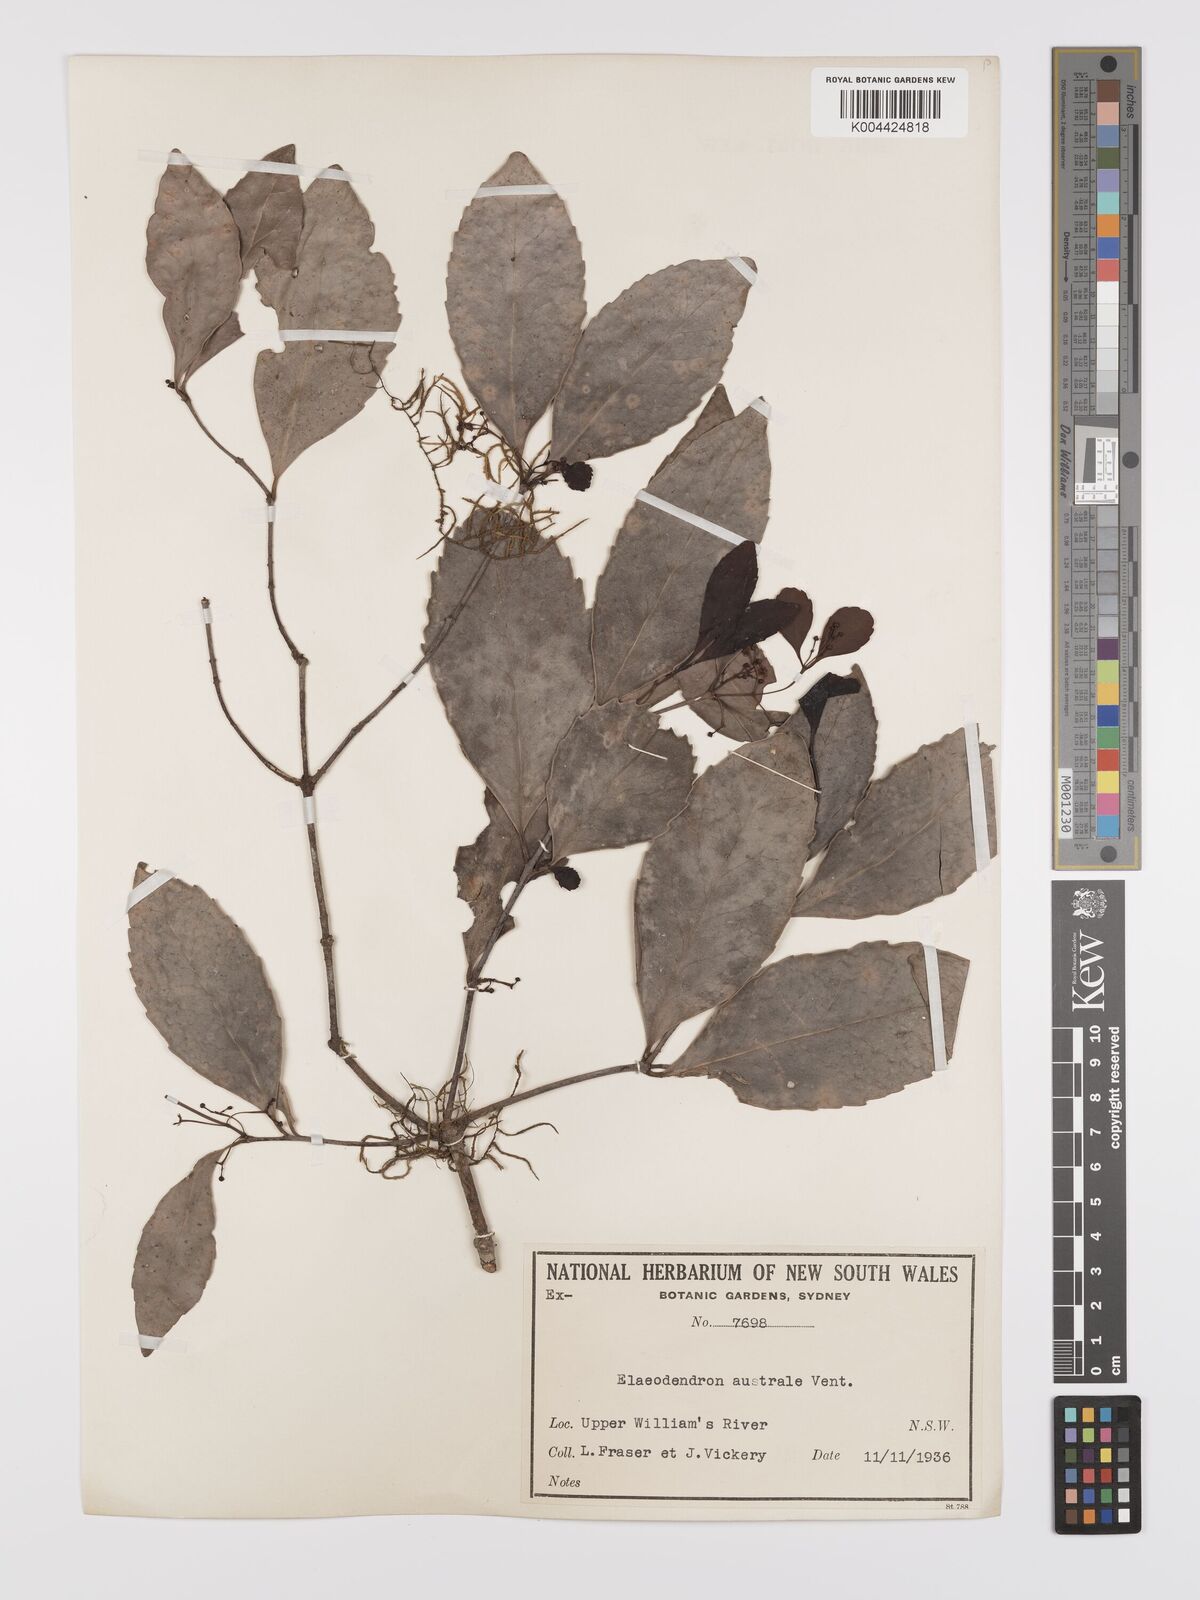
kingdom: Plantae
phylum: Tracheophyta
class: Magnoliopsida
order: Celastrales
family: Celastraceae
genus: Elaeodendron
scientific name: Elaeodendron australe
